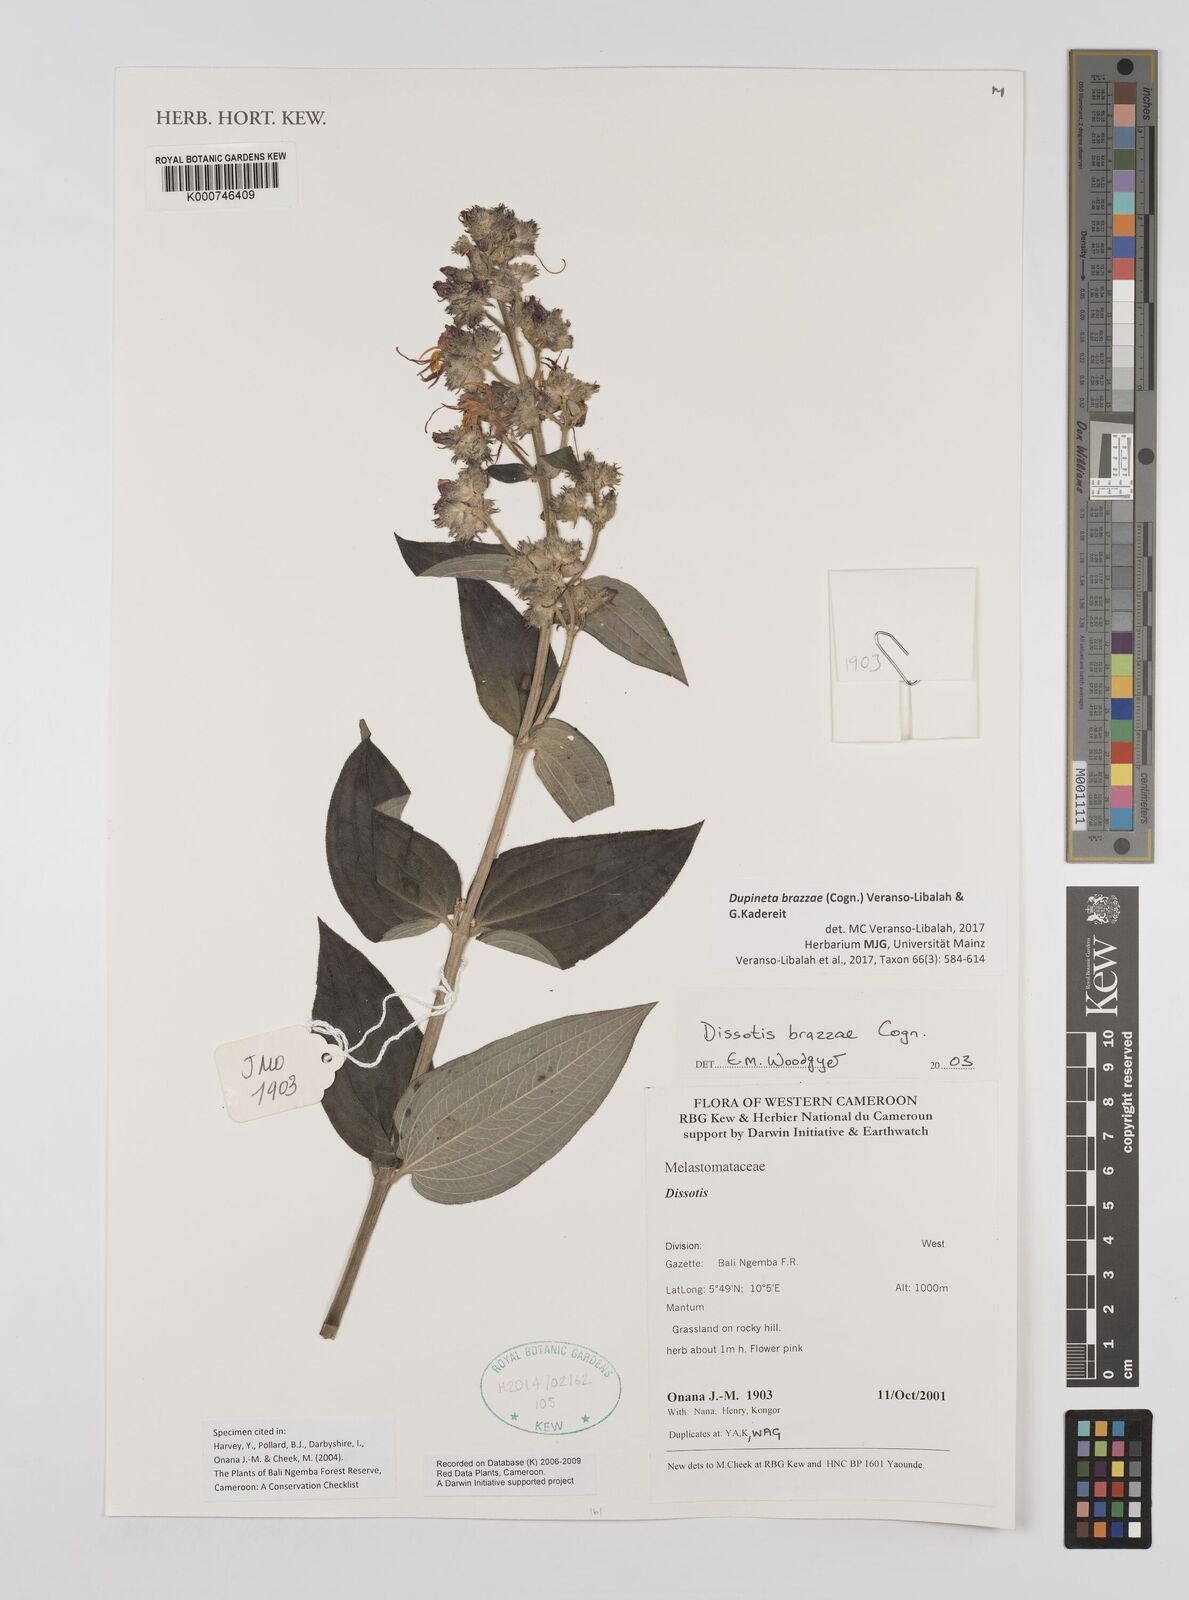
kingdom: Plantae
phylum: Tracheophyta
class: Magnoliopsida
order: Myrtales
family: Melastomataceae
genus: Dupineta
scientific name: Dupineta brazzae
